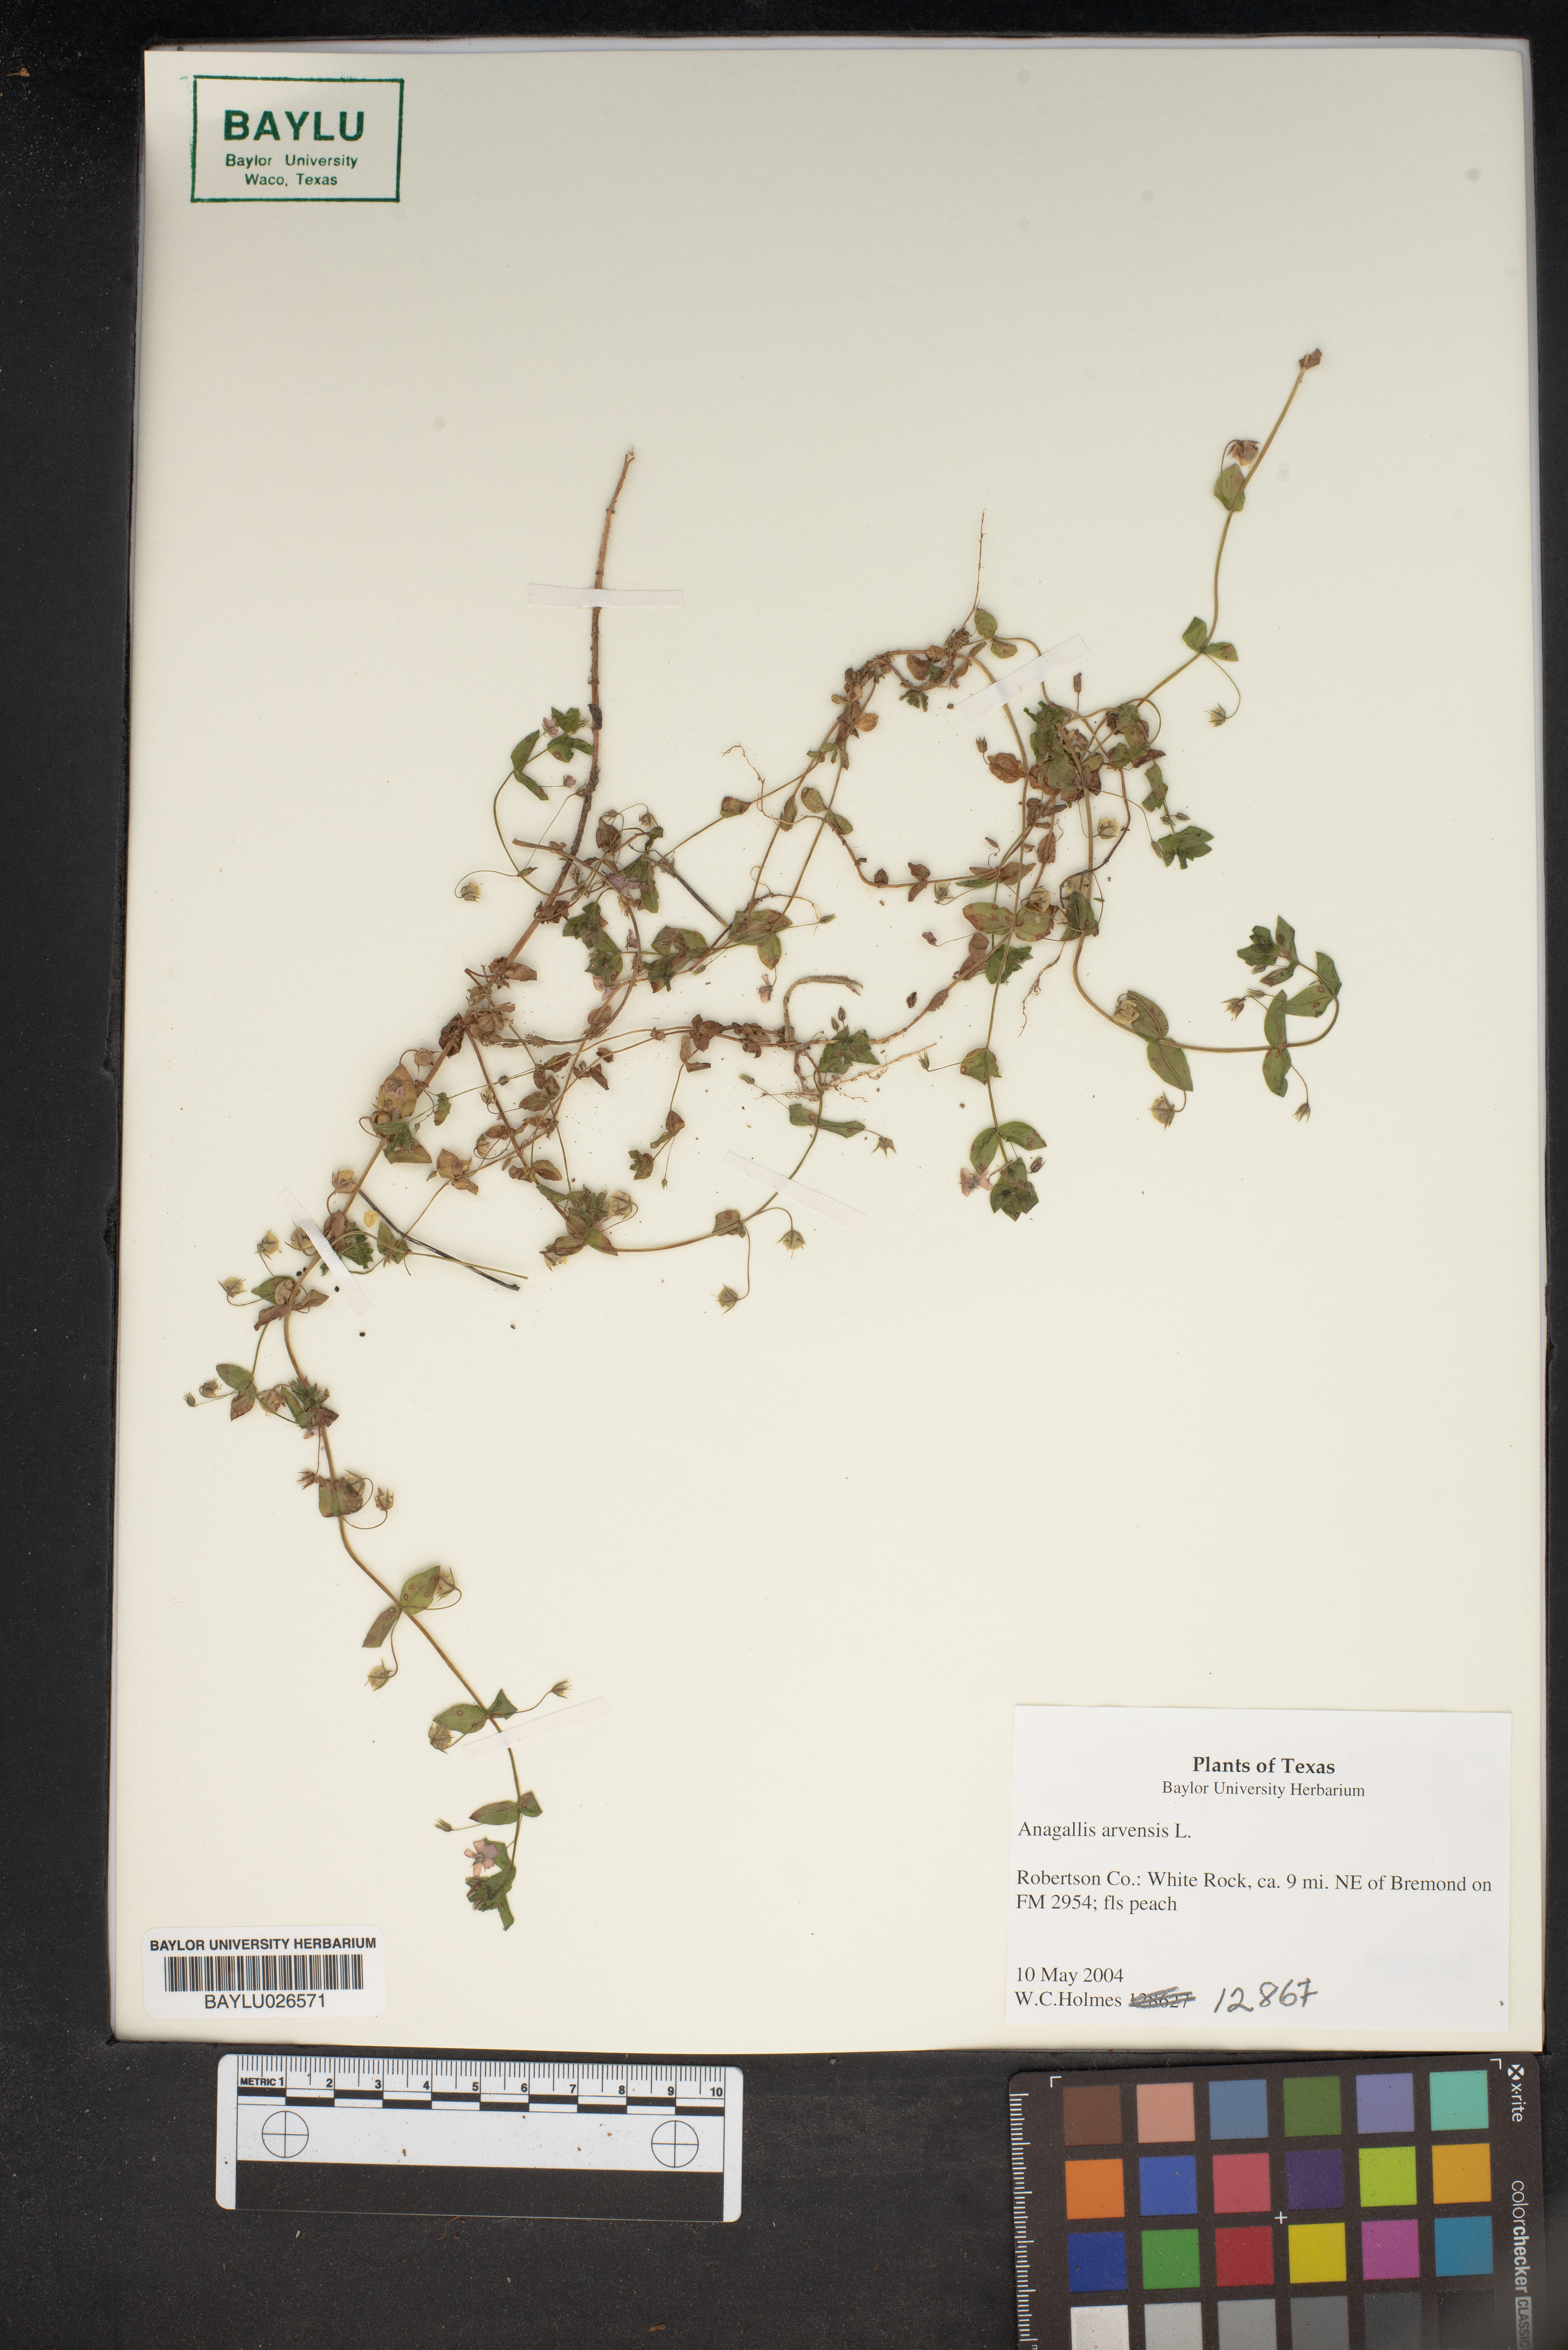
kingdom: Plantae
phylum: Tracheophyta
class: Magnoliopsida
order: Ericales
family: Primulaceae
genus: Lysimachia
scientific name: Lysimachia arvensis
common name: Scarlet pimpernel
